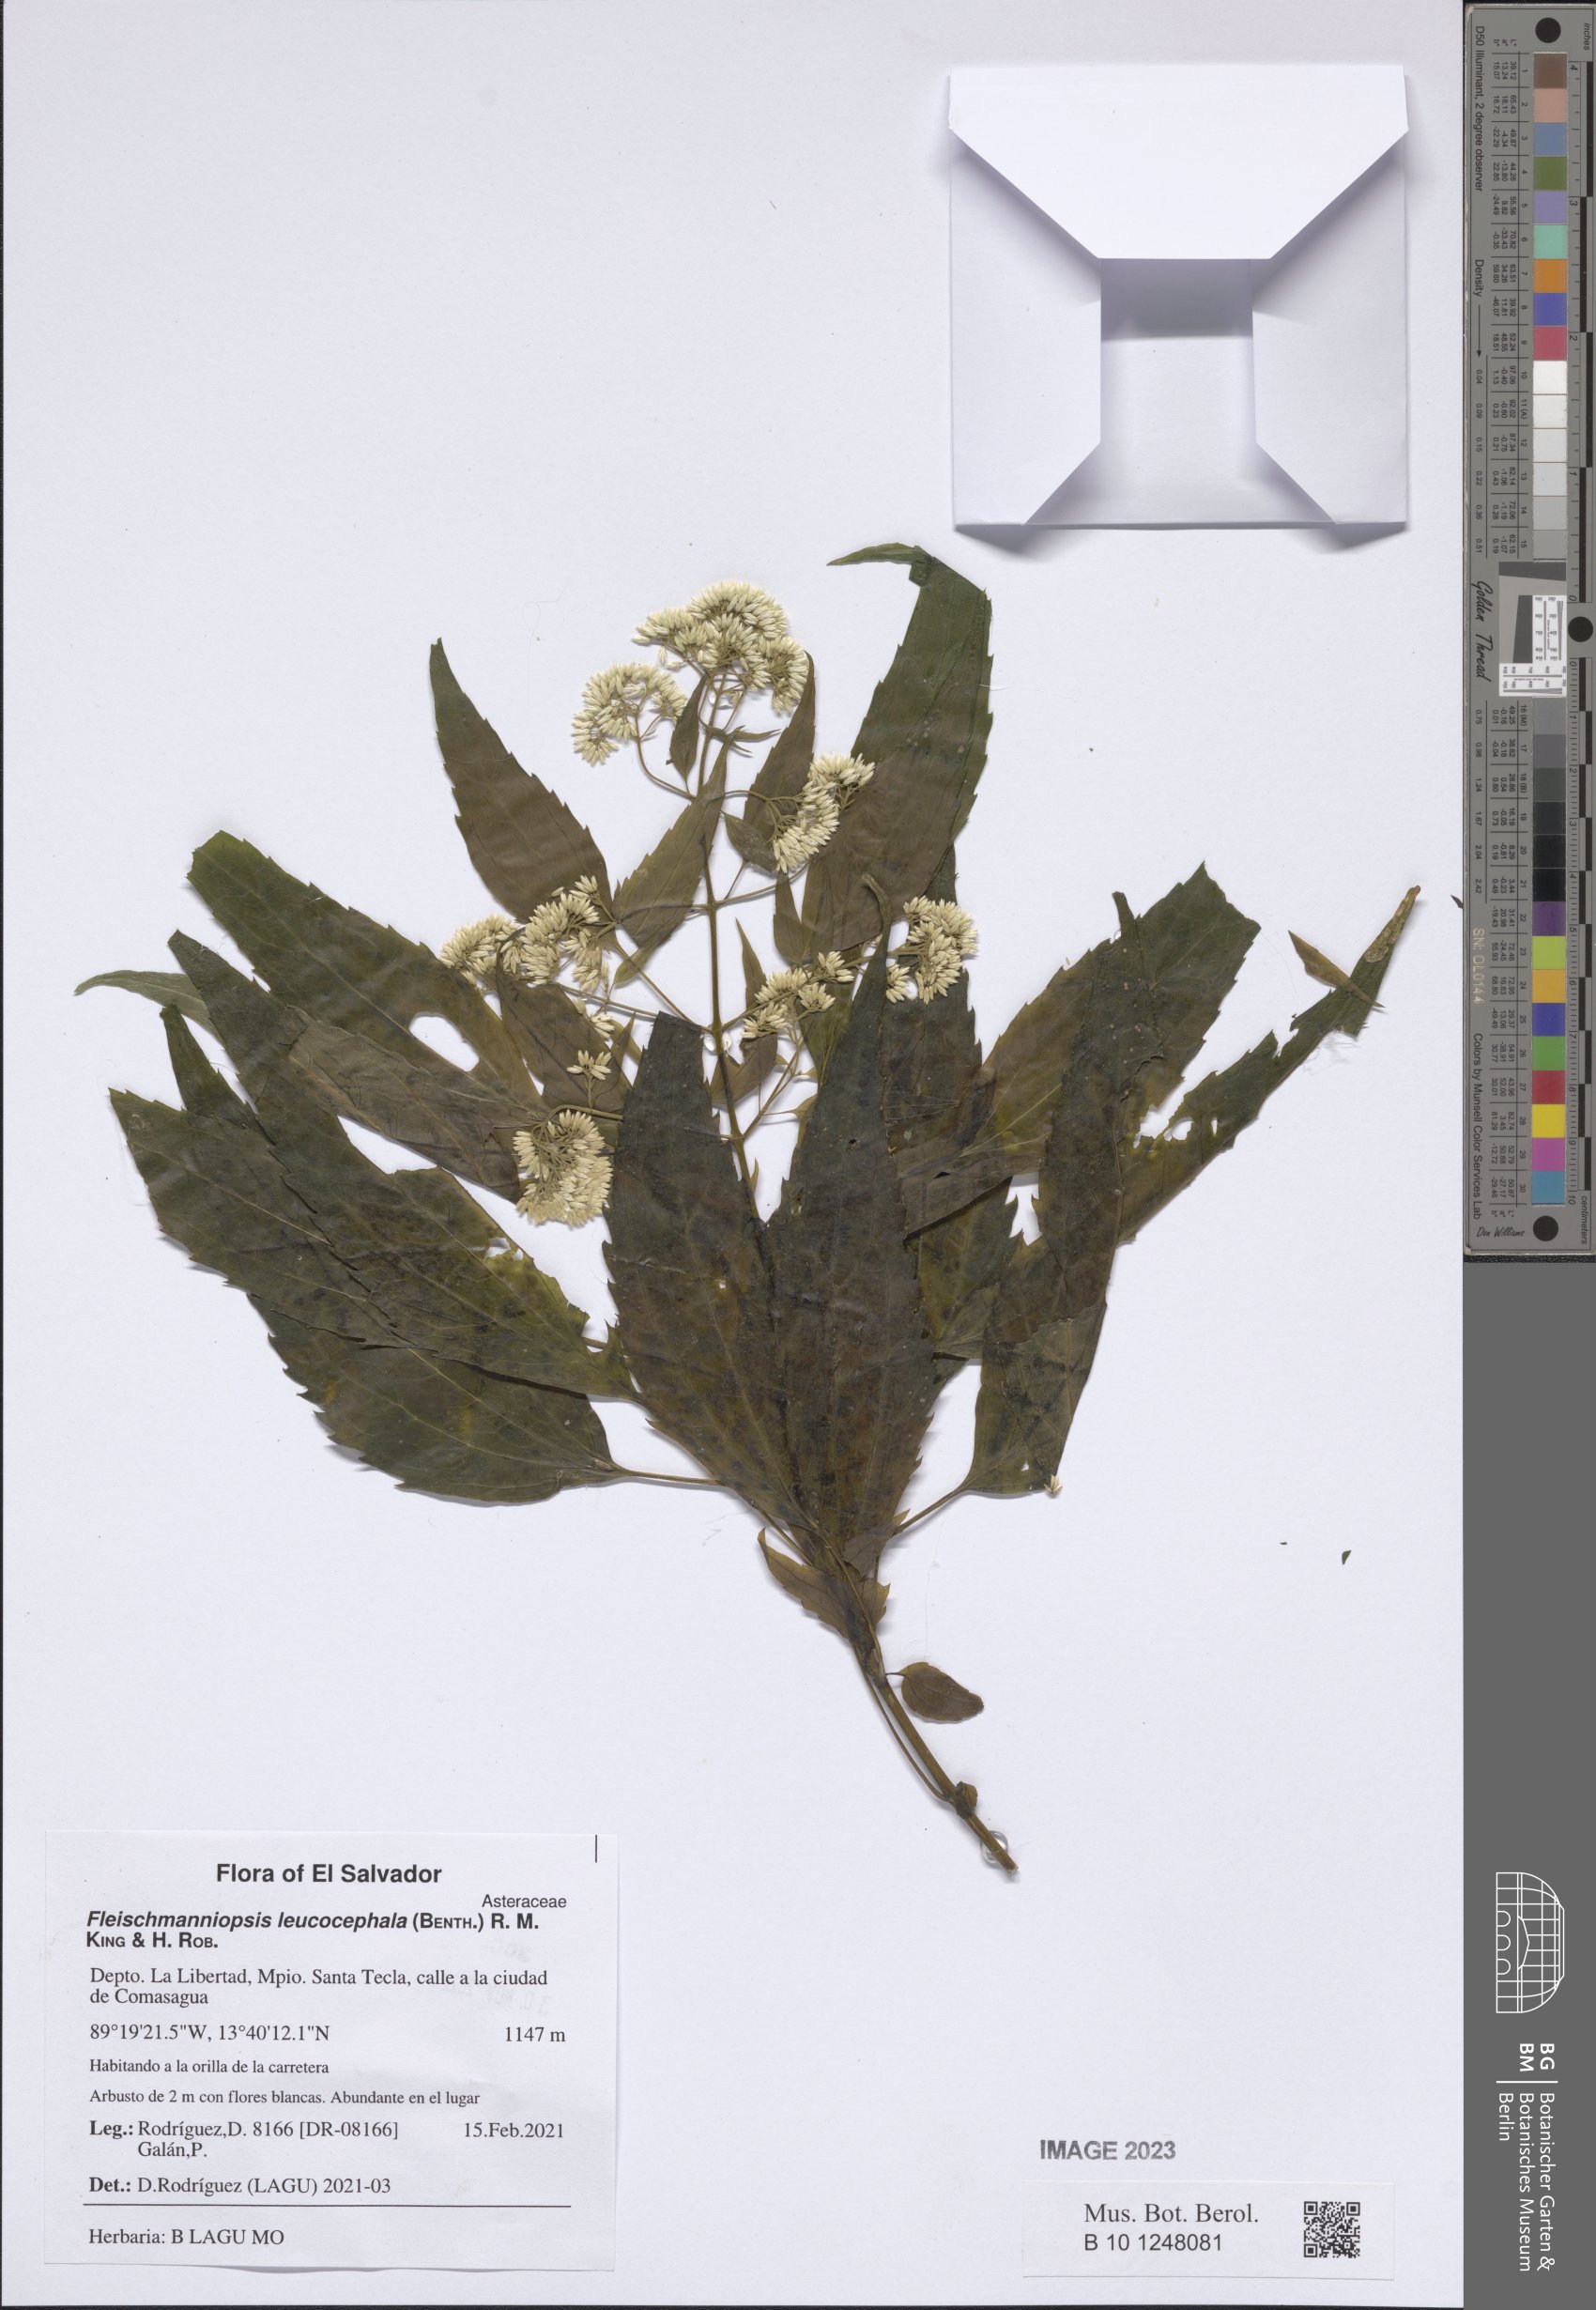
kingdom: Plantae
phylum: Tracheophyta
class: Magnoliopsida
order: Asterales
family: Asteraceae
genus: Fleischmanniopsis
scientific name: Fleischmanniopsis leucocephala
